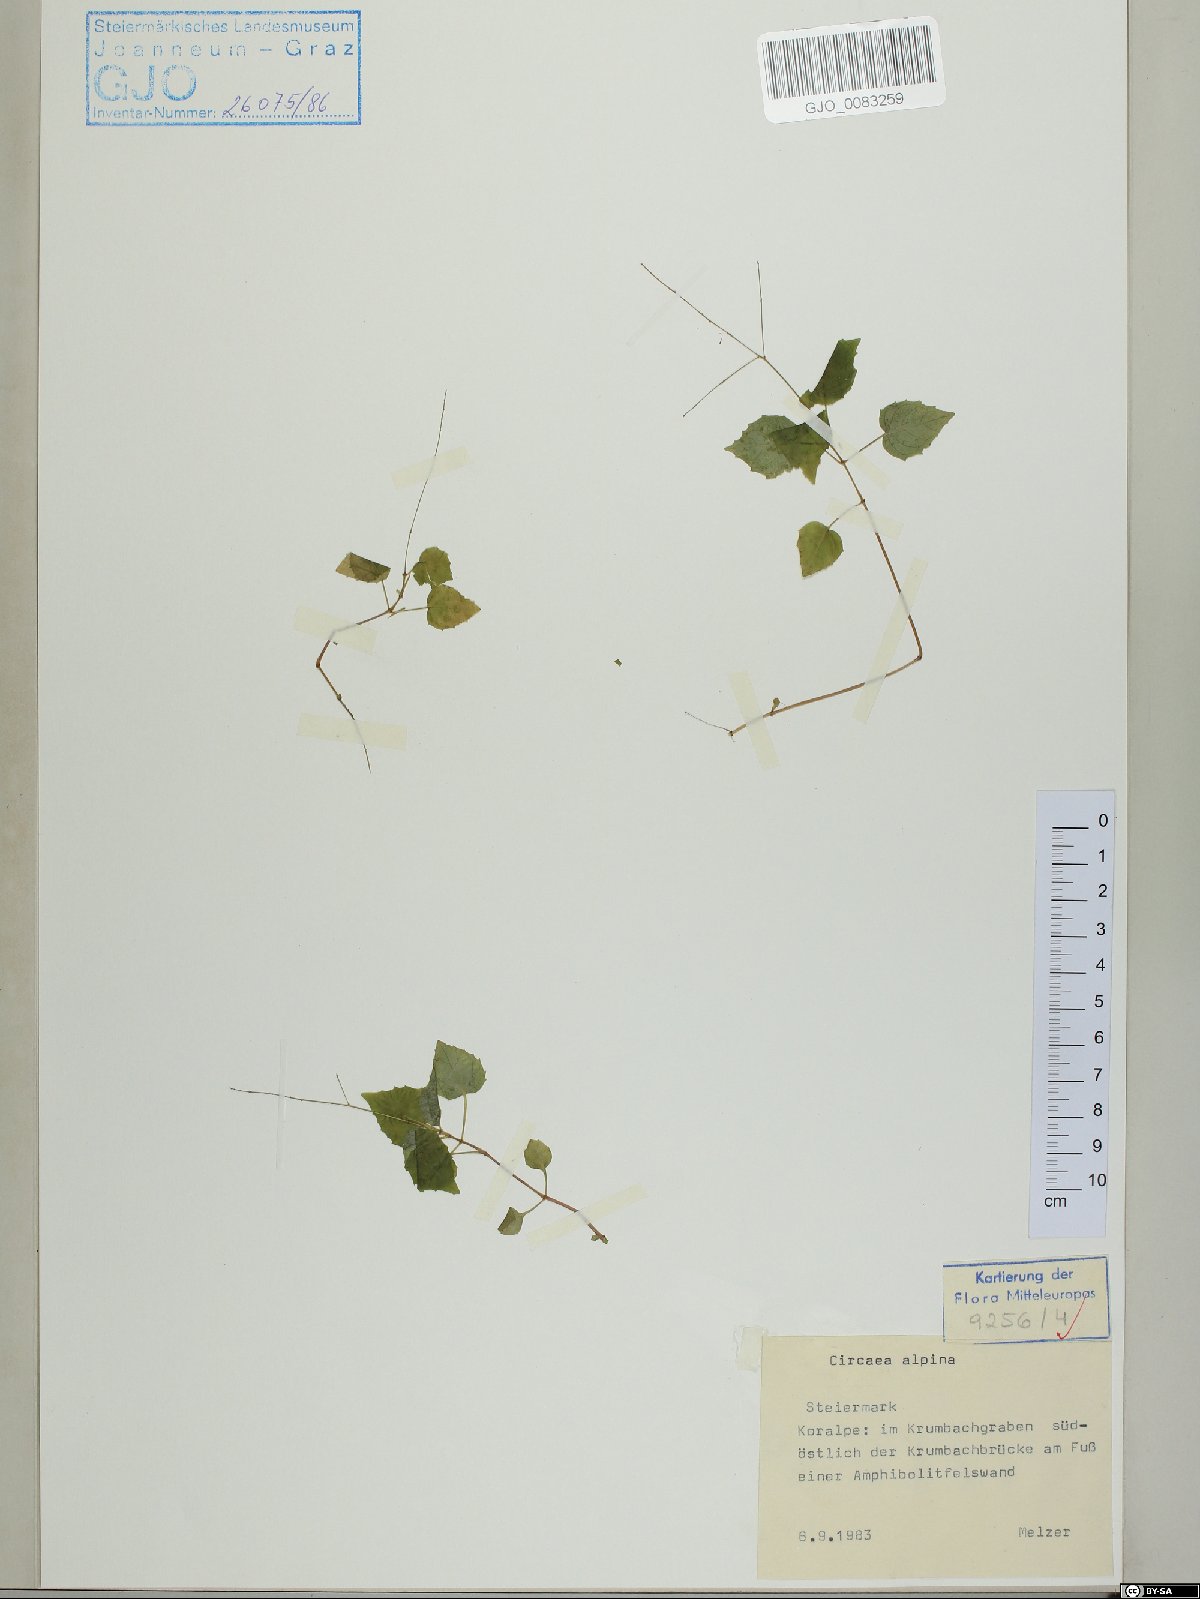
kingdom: Plantae
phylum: Tracheophyta
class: Magnoliopsida
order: Myrtales
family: Onagraceae
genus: Circaea
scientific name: Circaea alpina
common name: Alpine enchanter's-nightshade
